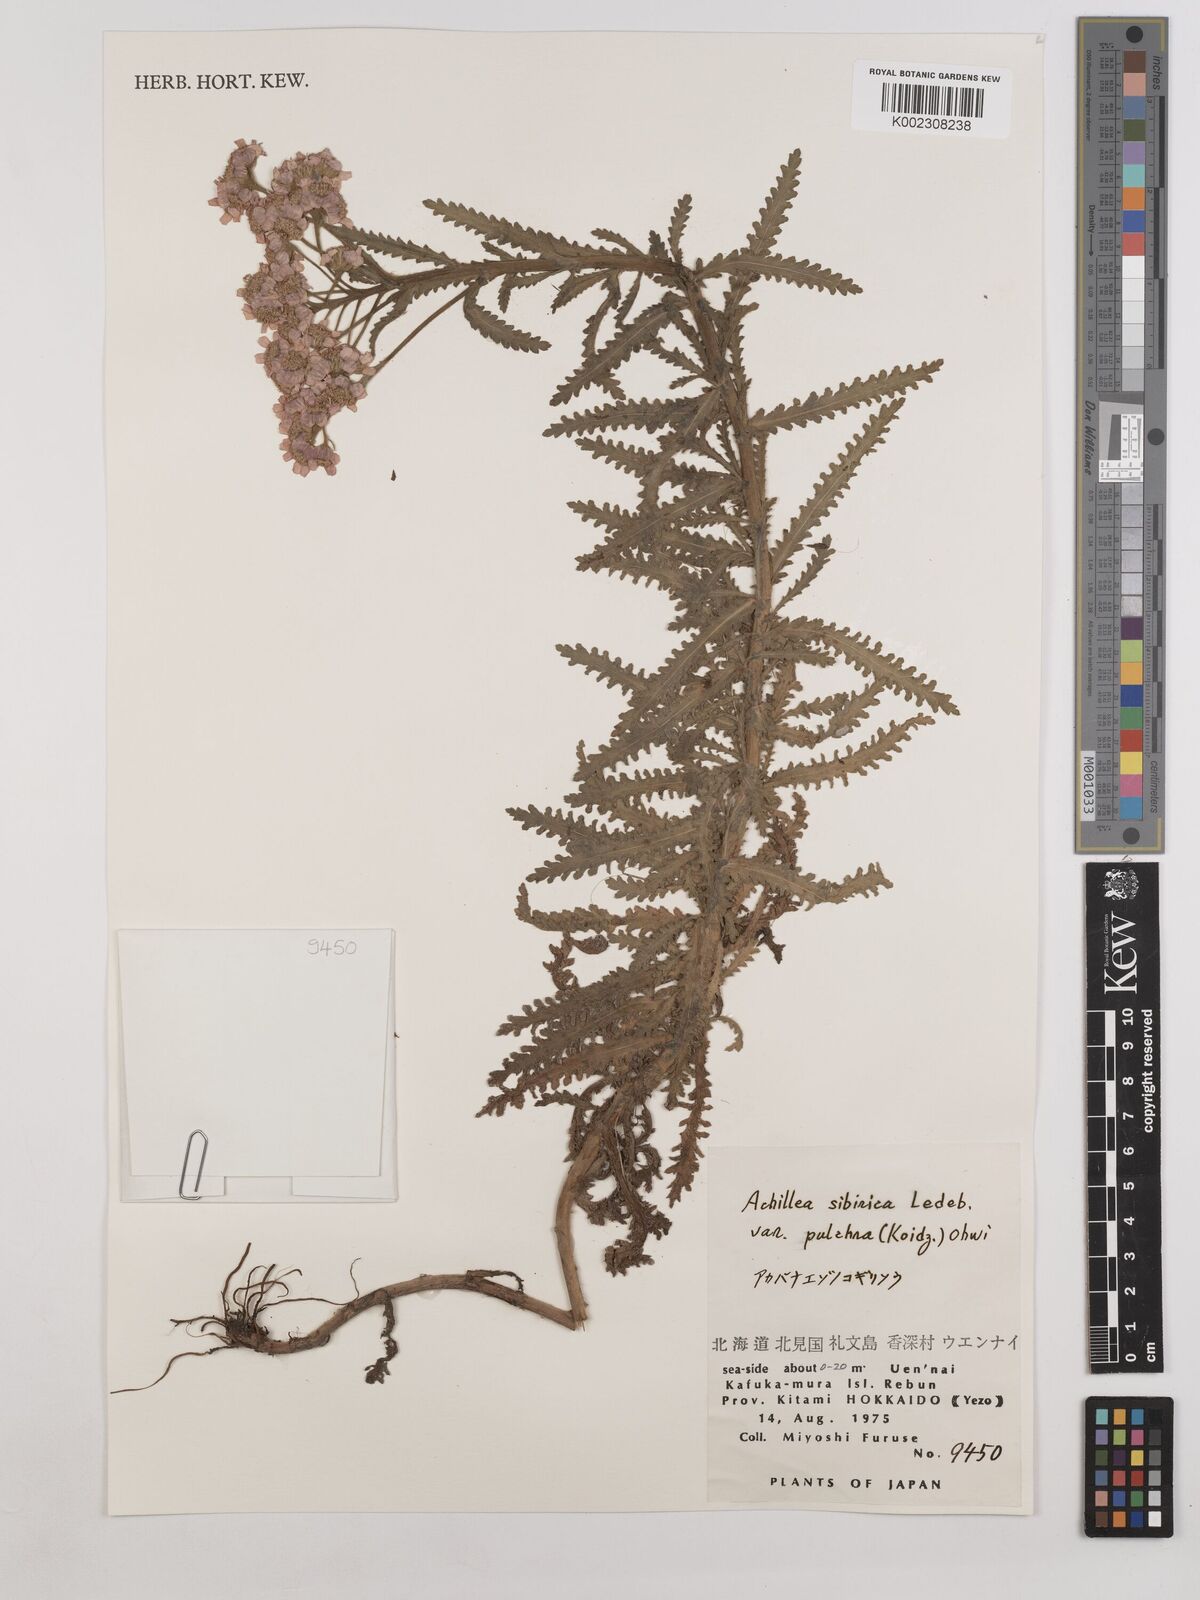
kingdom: Plantae
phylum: Tracheophyta
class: Magnoliopsida
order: Asterales
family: Asteraceae
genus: Achillea
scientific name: Achillea alpina
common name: Siberian yarrow
